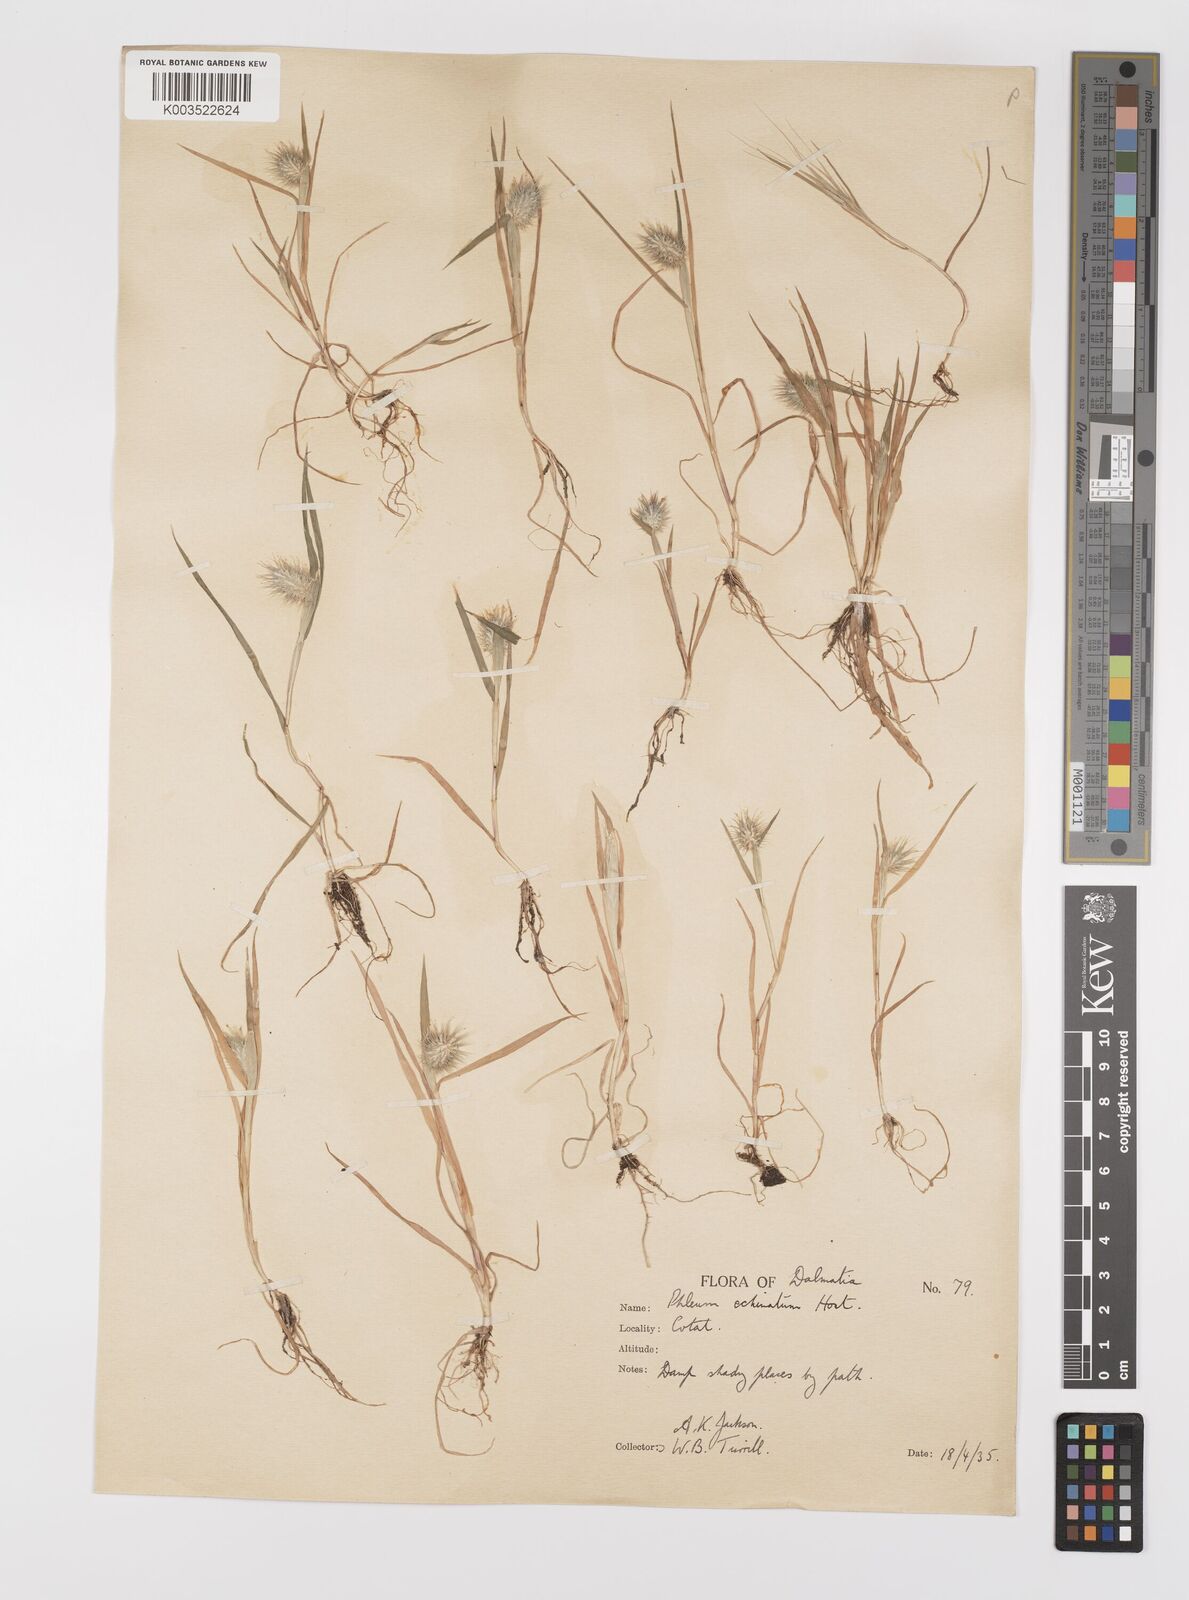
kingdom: Plantae
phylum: Tracheophyta
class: Liliopsida
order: Poales
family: Poaceae
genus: Phleum
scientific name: Phleum echinatum
